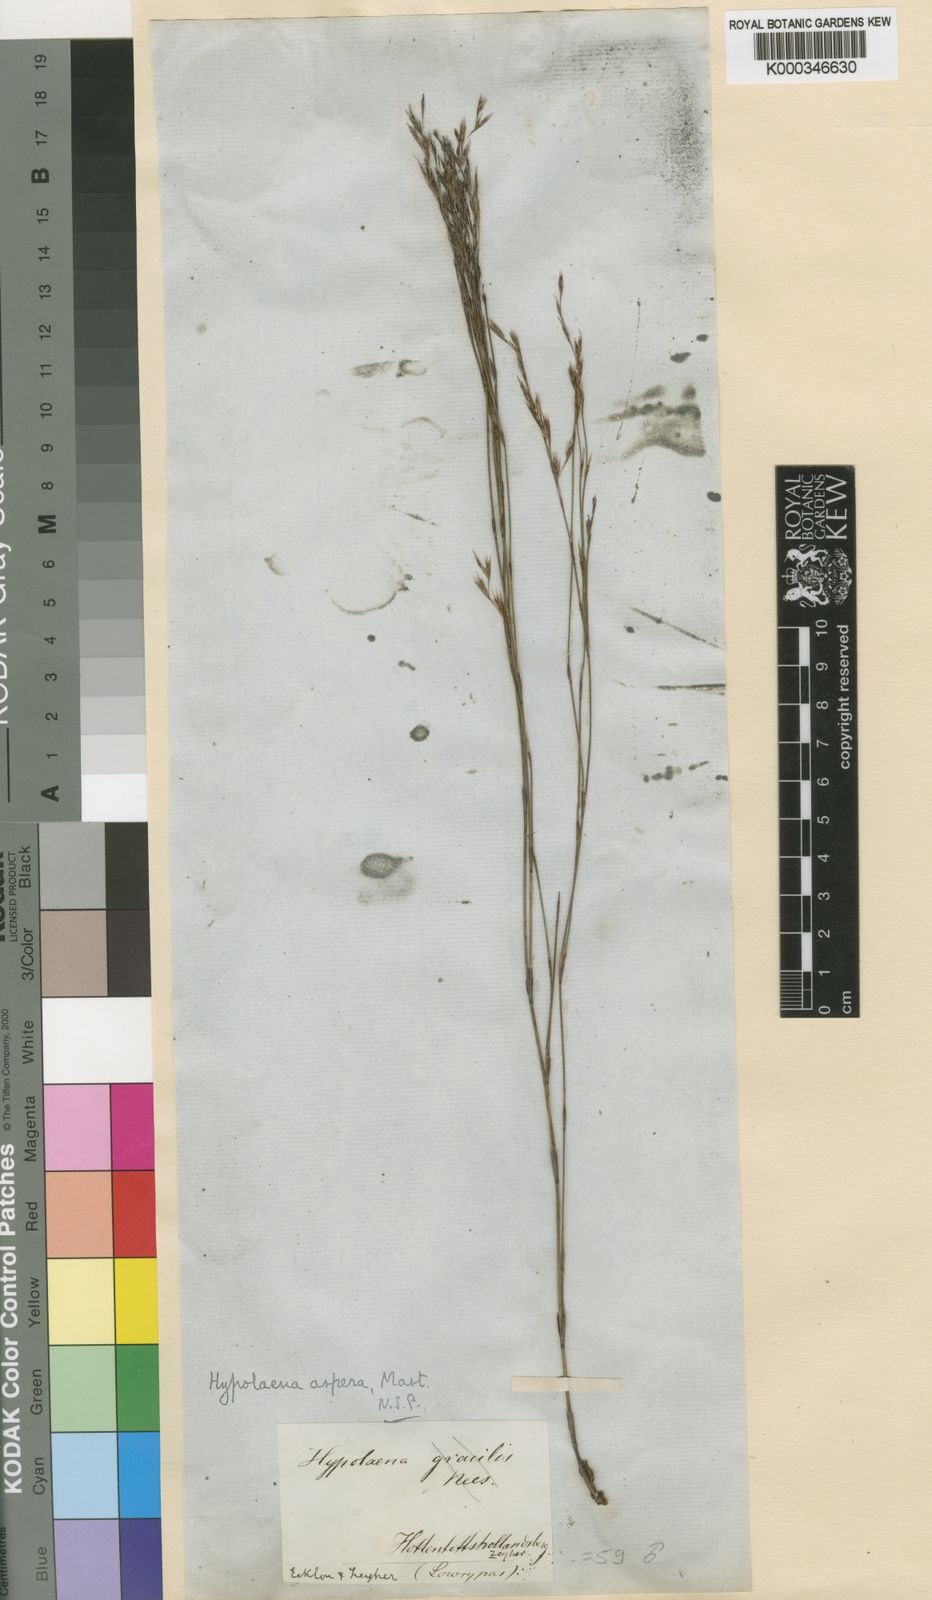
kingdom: Plantae
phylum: Tracheophyta
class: Liliopsida
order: Poales
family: Restionaceae
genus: Restio
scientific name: Restio asperus
